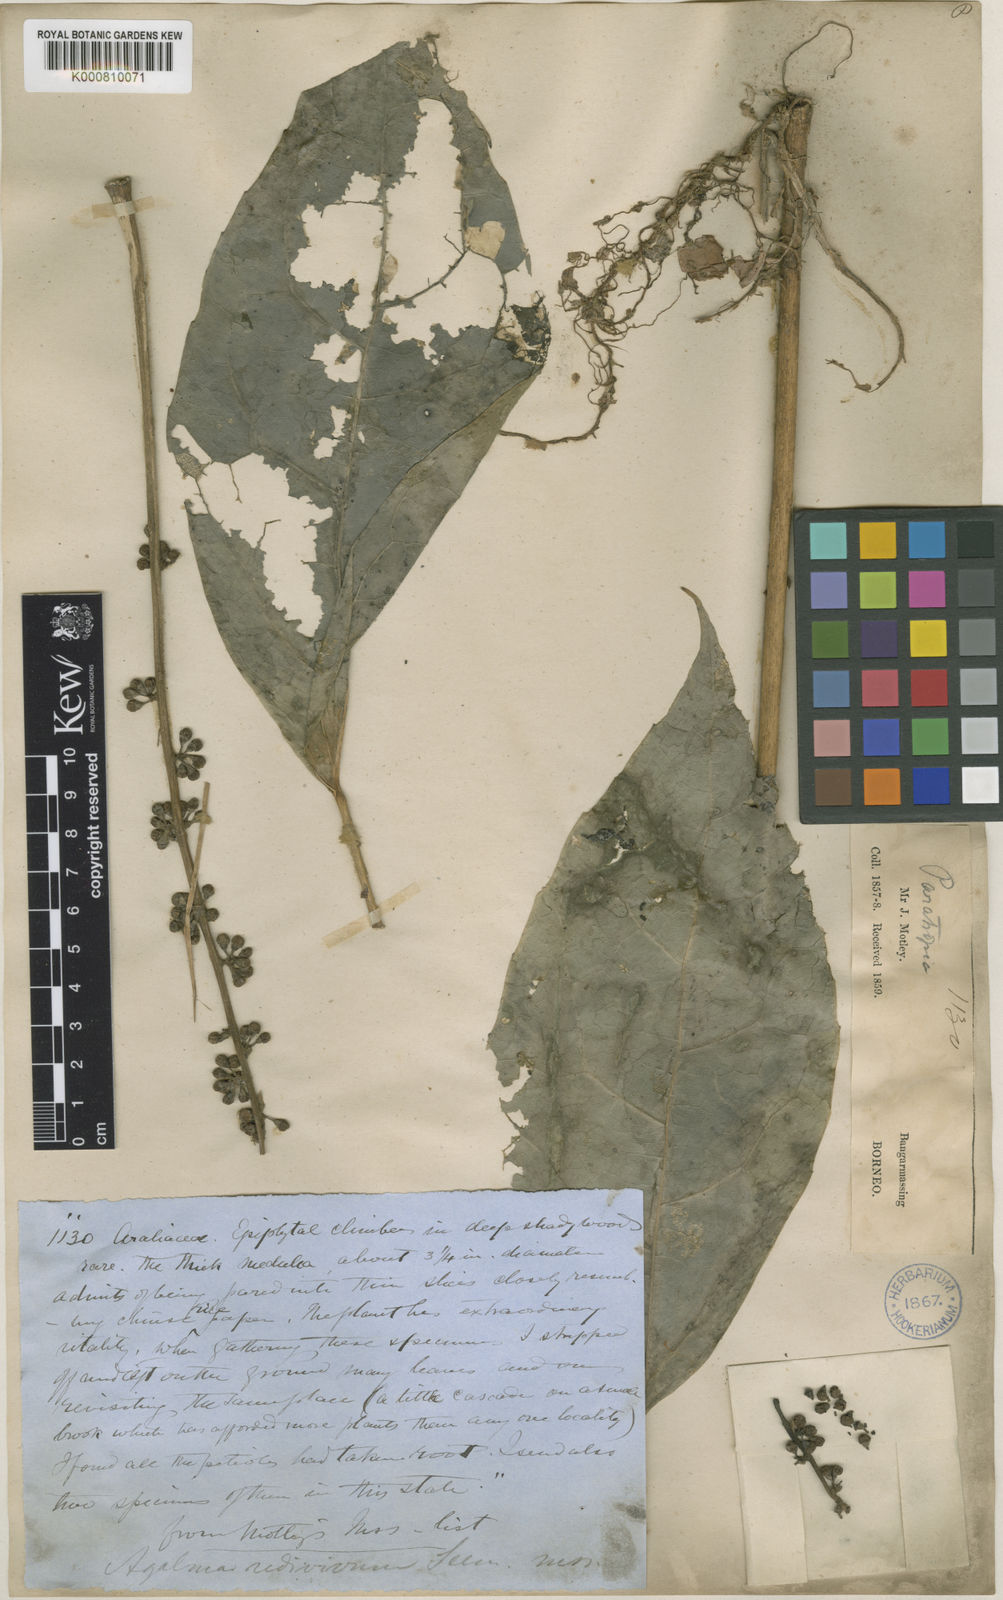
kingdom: Plantae
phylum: Tracheophyta
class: Magnoliopsida
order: Apiales
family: Araliaceae
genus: Heptapleurum
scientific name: Heptapleurum petiolosum
